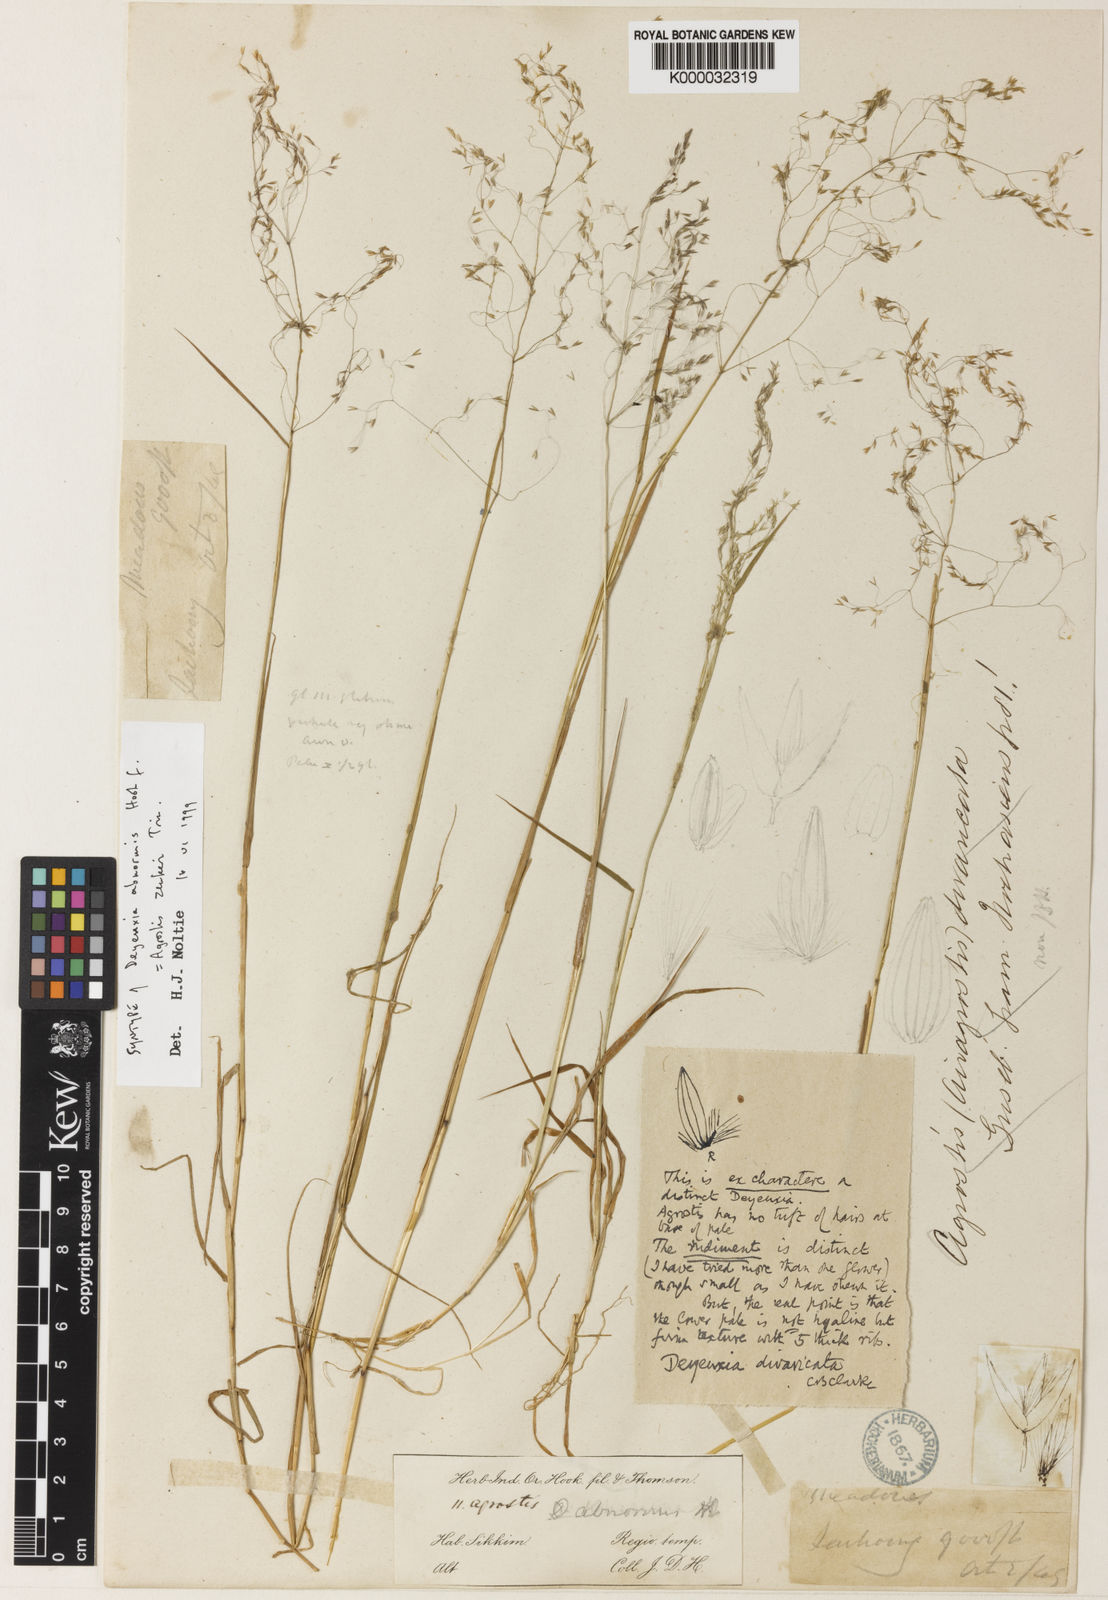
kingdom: Plantae
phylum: Tracheophyta
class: Liliopsida
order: Poales
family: Poaceae
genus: Calamagrostis
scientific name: Calamagrostis abnormis
